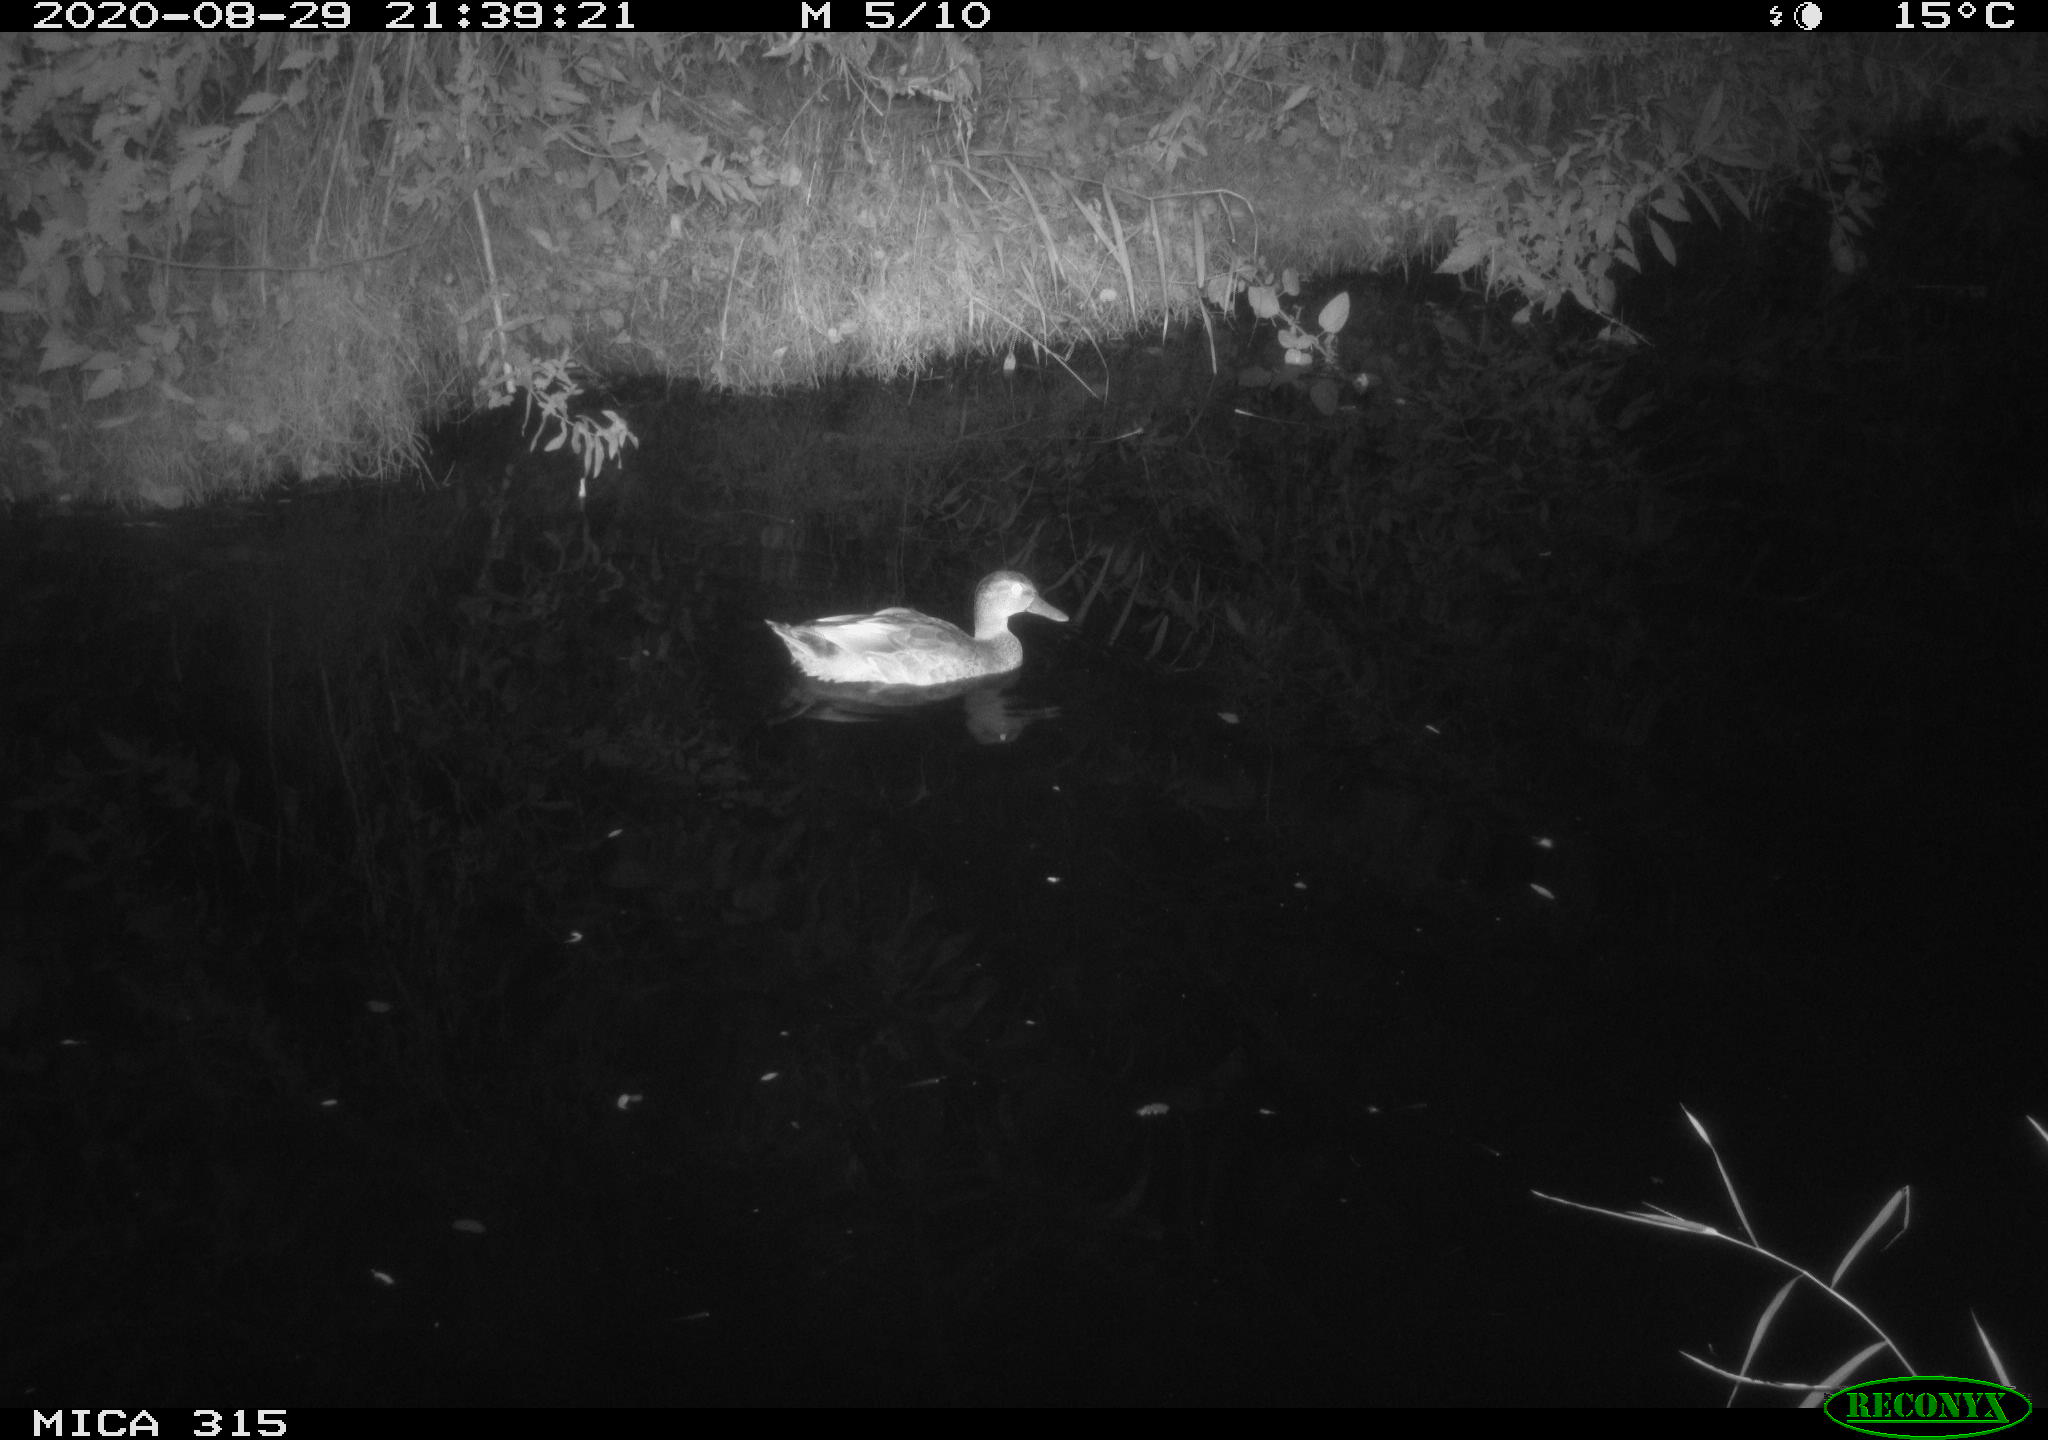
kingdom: Animalia
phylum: Chordata
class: Aves
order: Anseriformes
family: Anatidae
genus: Anas
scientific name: Anas platyrhynchos
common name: Mallard
